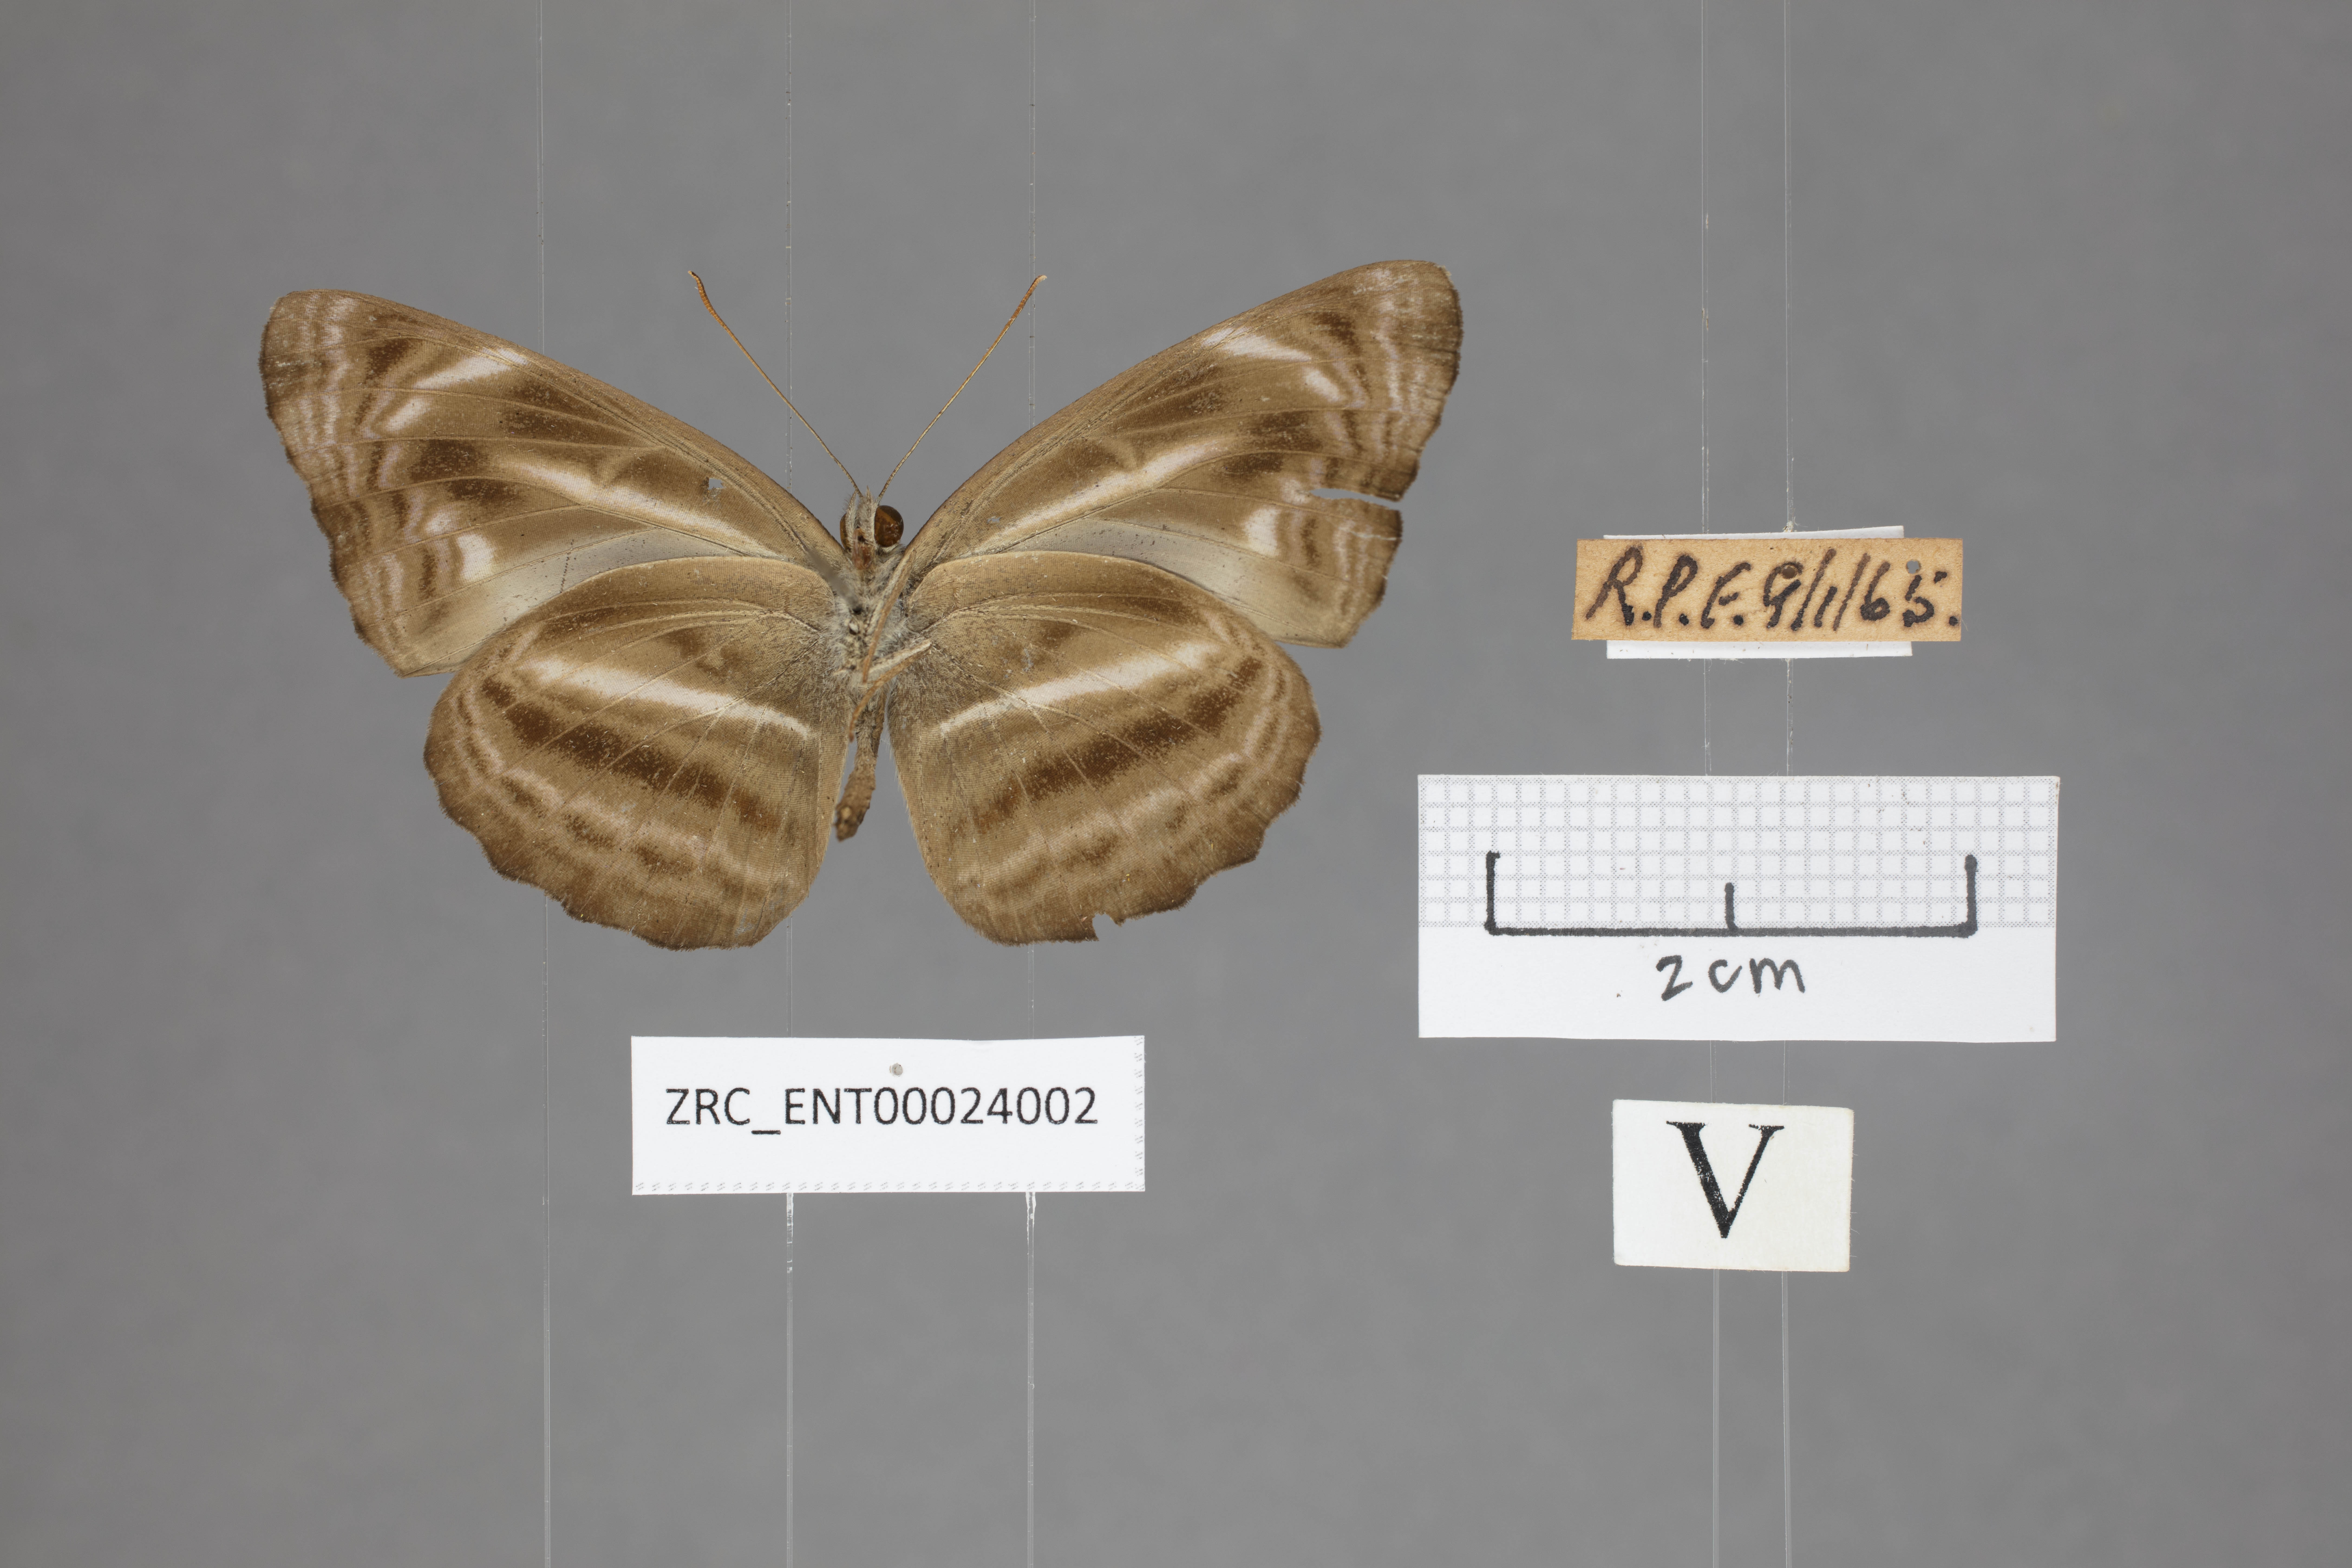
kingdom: Animalia
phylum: Arthropoda
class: Insecta
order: Lepidoptera
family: Nymphalidae
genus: Neptis
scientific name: Neptis harita
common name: Chocolate sailer
